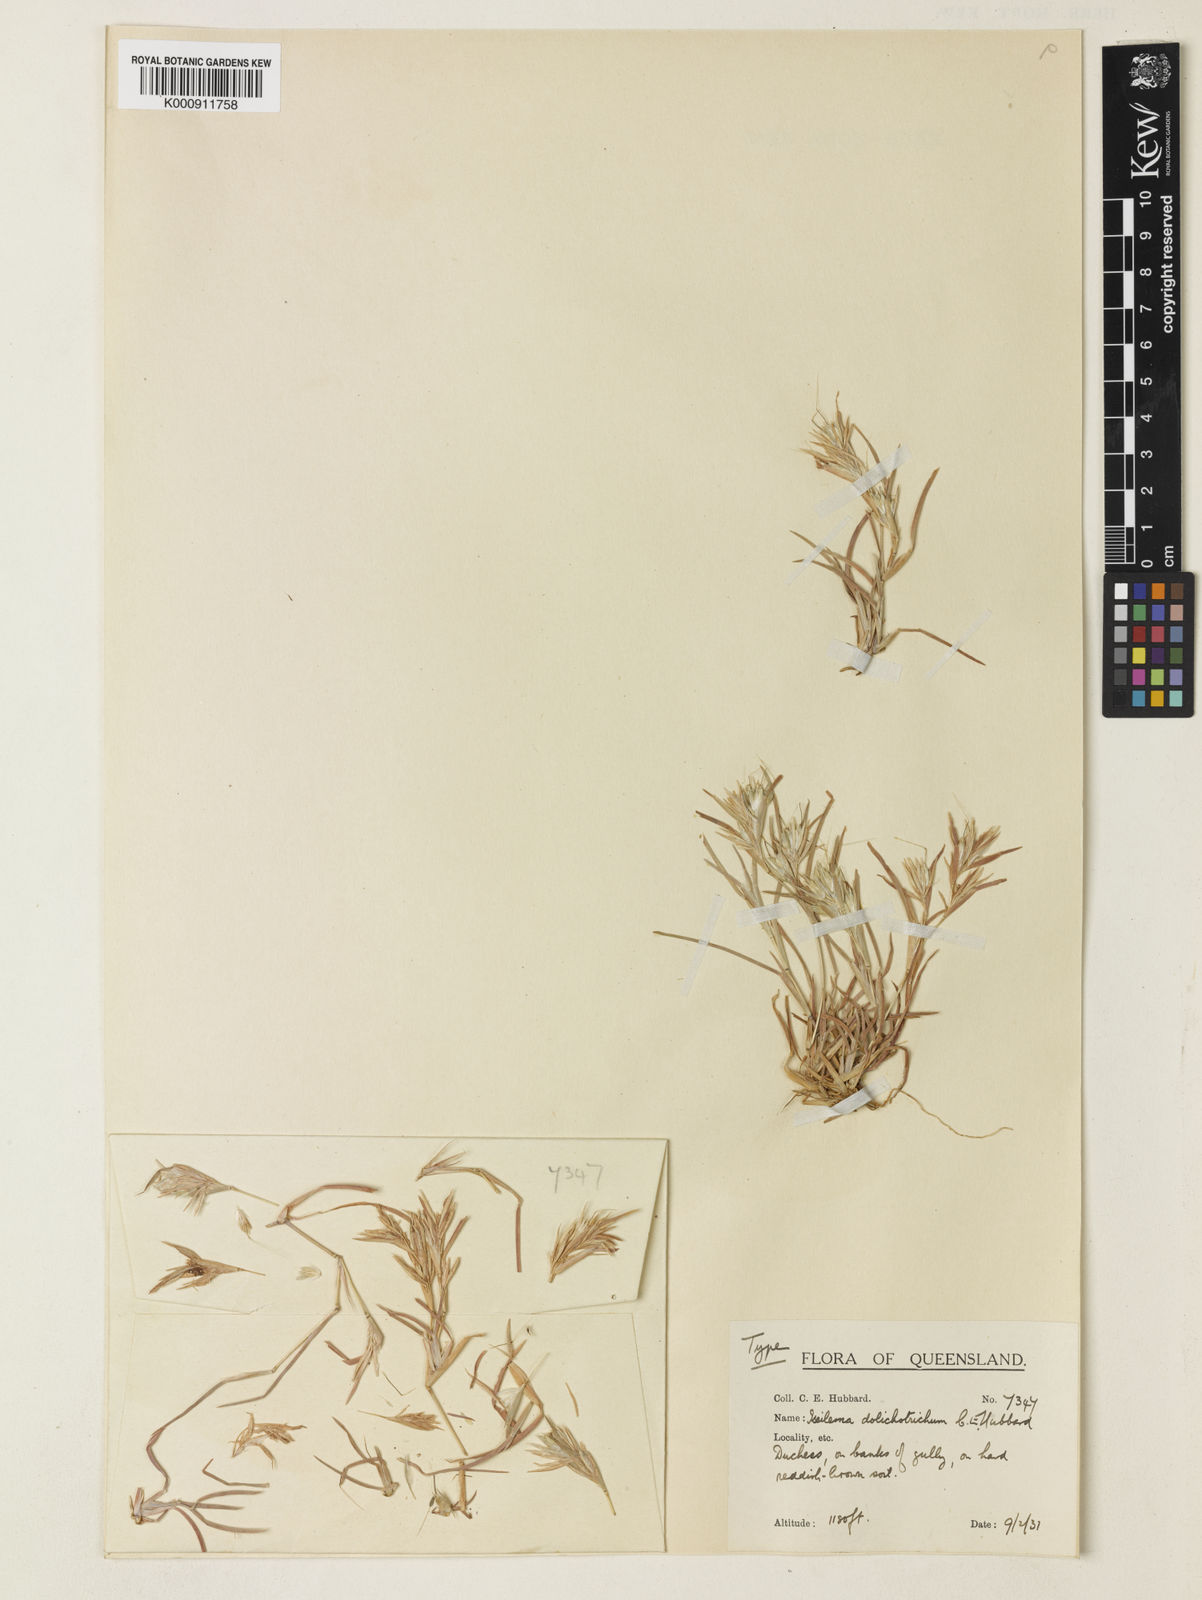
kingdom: Plantae
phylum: Tracheophyta
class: Liliopsida
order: Poales
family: Poaceae
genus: Iseilema
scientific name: Iseilema dolichotrichum
